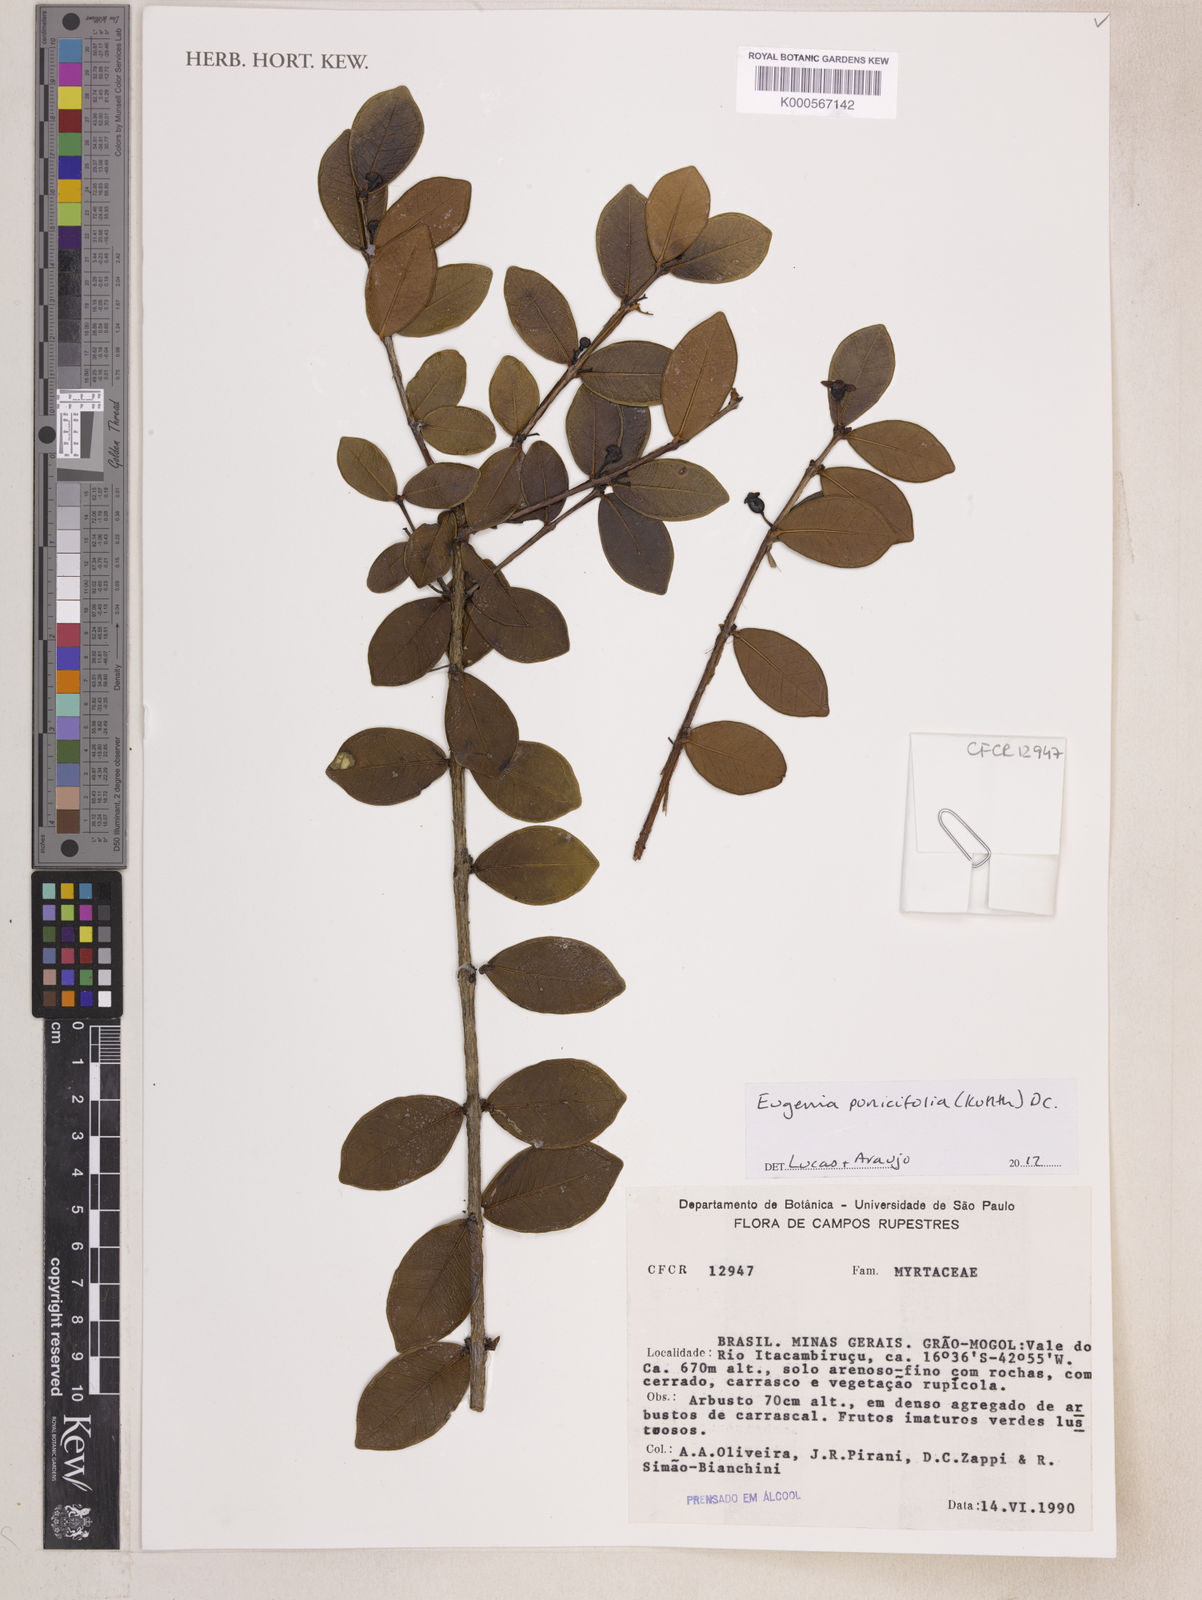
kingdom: Plantae
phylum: Tracheophyta
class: Magnoliopsida
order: Myrtales
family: Myrtaceae
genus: Eugenia
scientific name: Eugenia punicifolia
